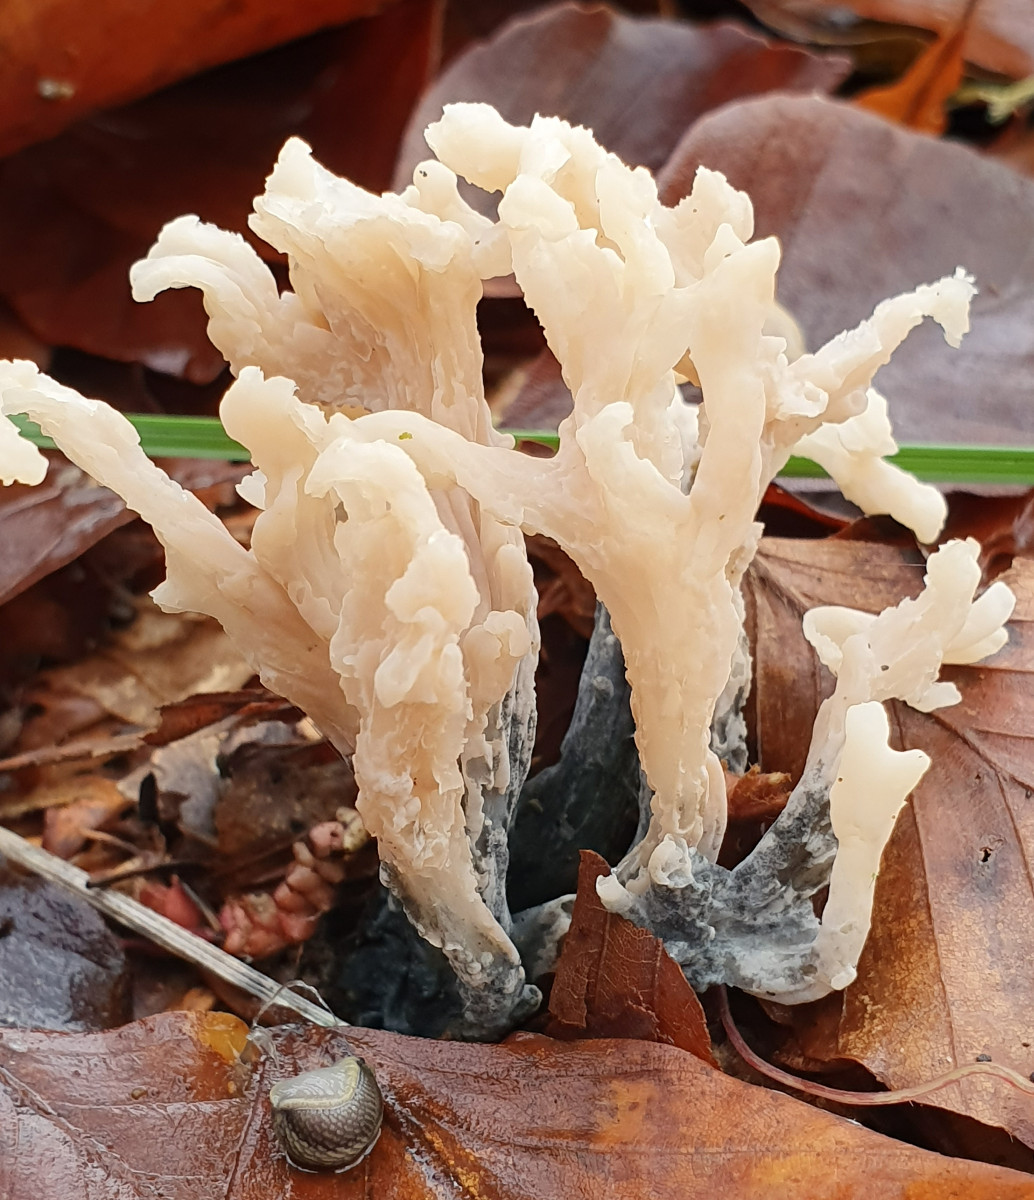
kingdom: Fungi
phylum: Ascomycota
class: Sordariomycetes
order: Sordariales
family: Helminthosphaeriaceae
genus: Helminthosphaeria
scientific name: Helminthosphaeria clavariarum
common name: trold-svampesnyltekerne
